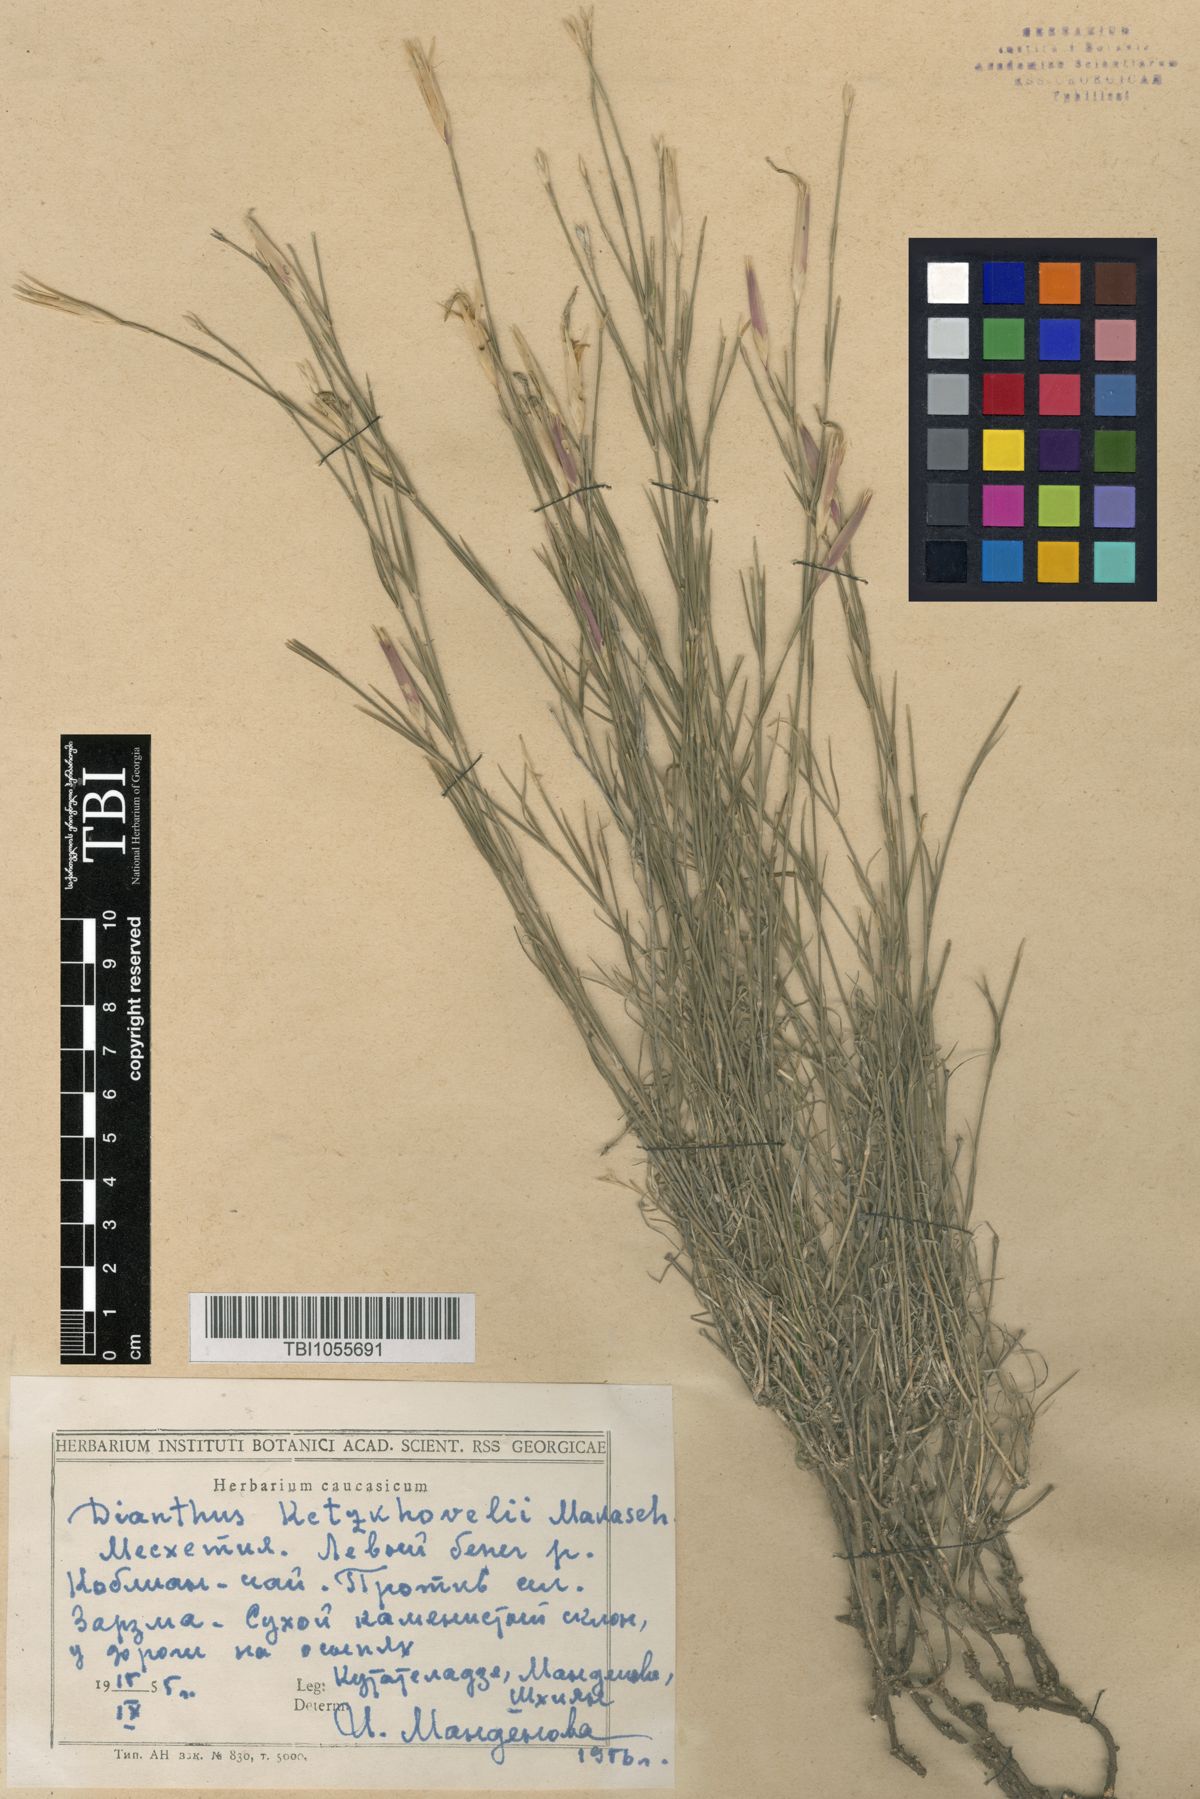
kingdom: Plantae
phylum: Tracheophyta
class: Magnoliopsida
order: Caryophyllales
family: Caryophyllaceae
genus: Dianthus
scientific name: Dianthus orientalis
